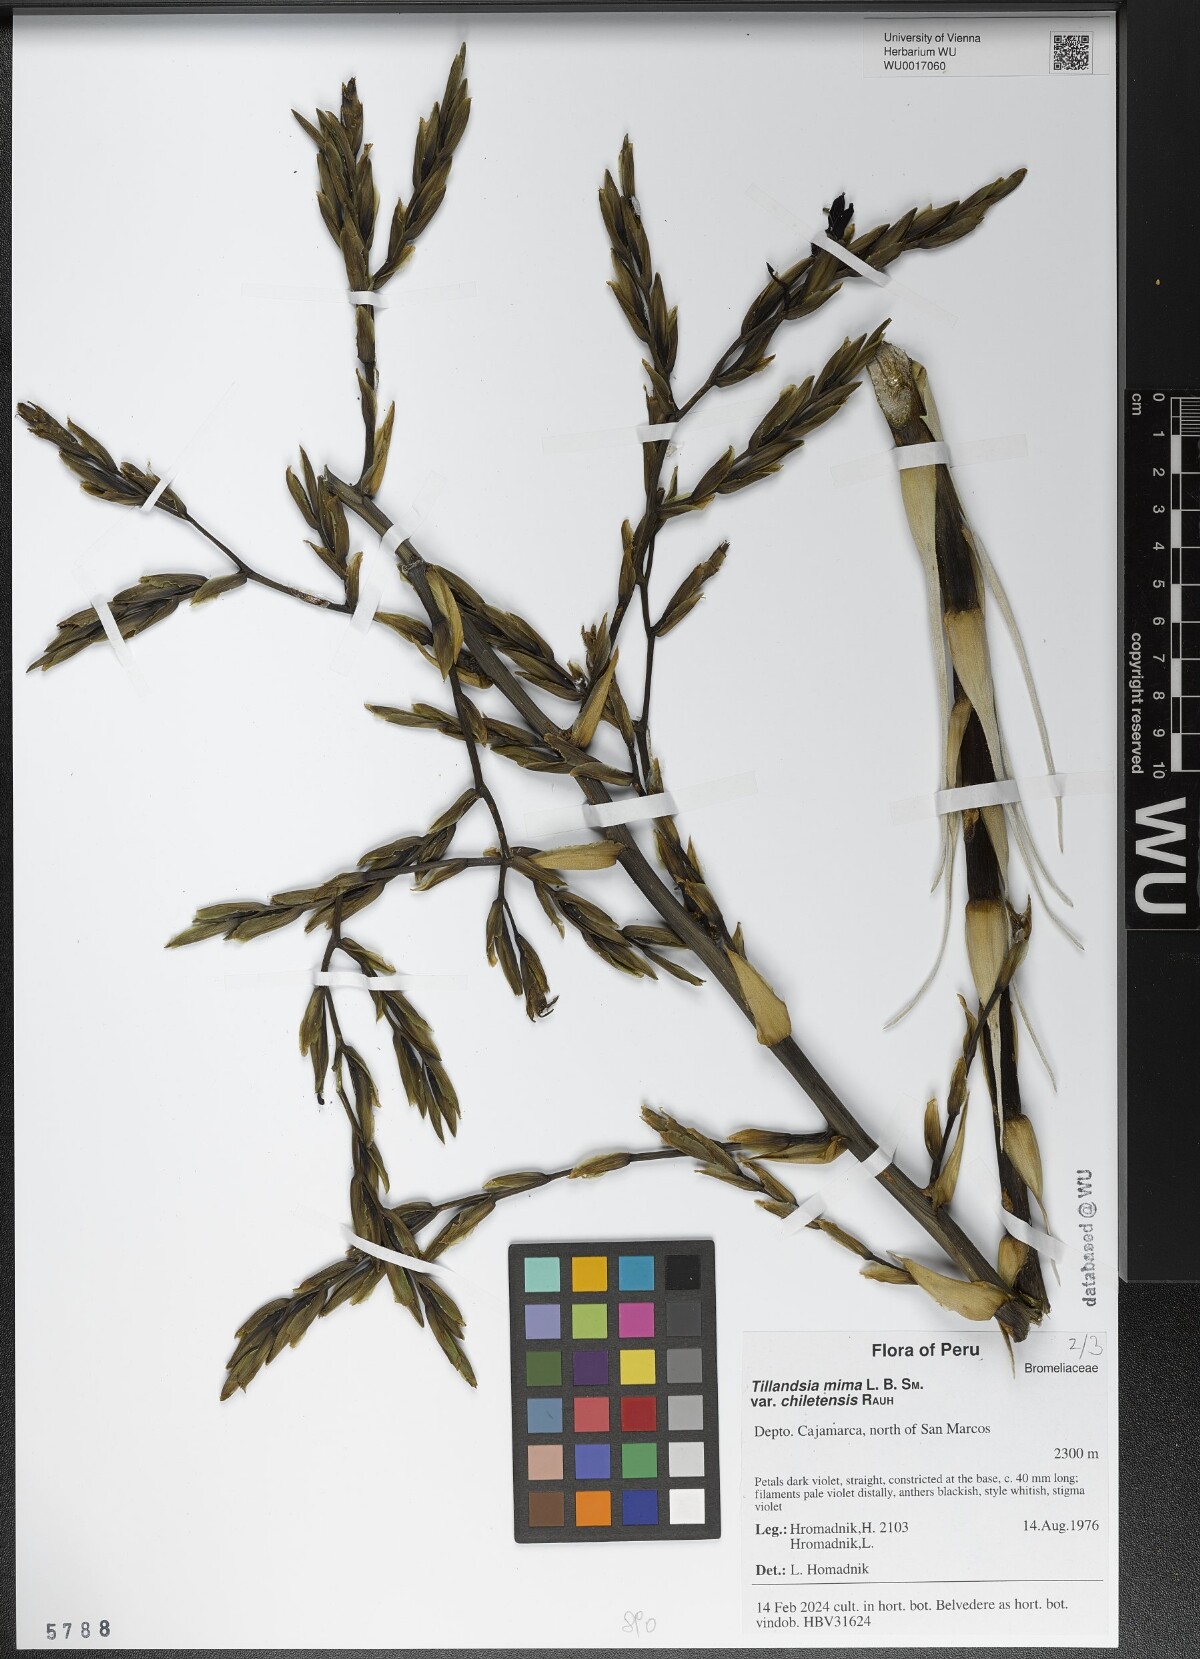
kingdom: Plantae
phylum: Tracheophyta
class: Liliopsida
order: Poales
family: Bromeliaceae
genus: Tillandsia
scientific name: Tillandsia mima
